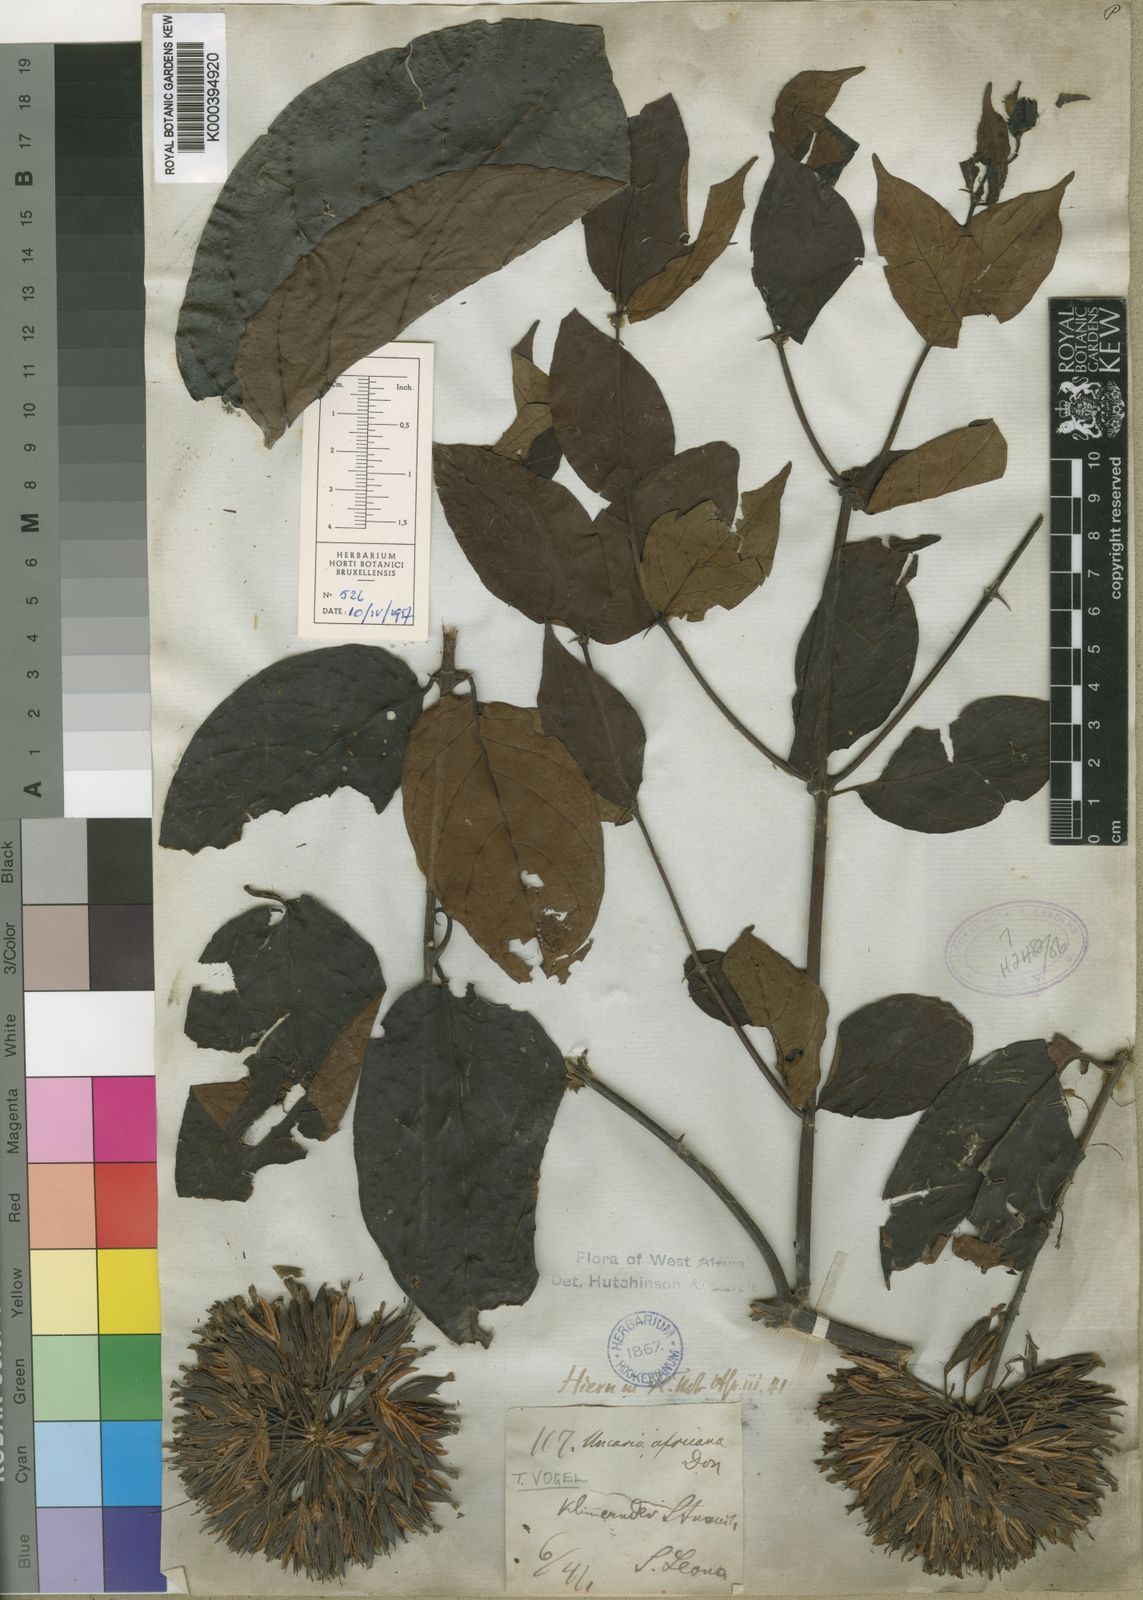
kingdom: Plantae
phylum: Tracheophyta
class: Magnoliopsida
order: Gentianales
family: Rubiaceae
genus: Uncaria
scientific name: Uncaria africana
